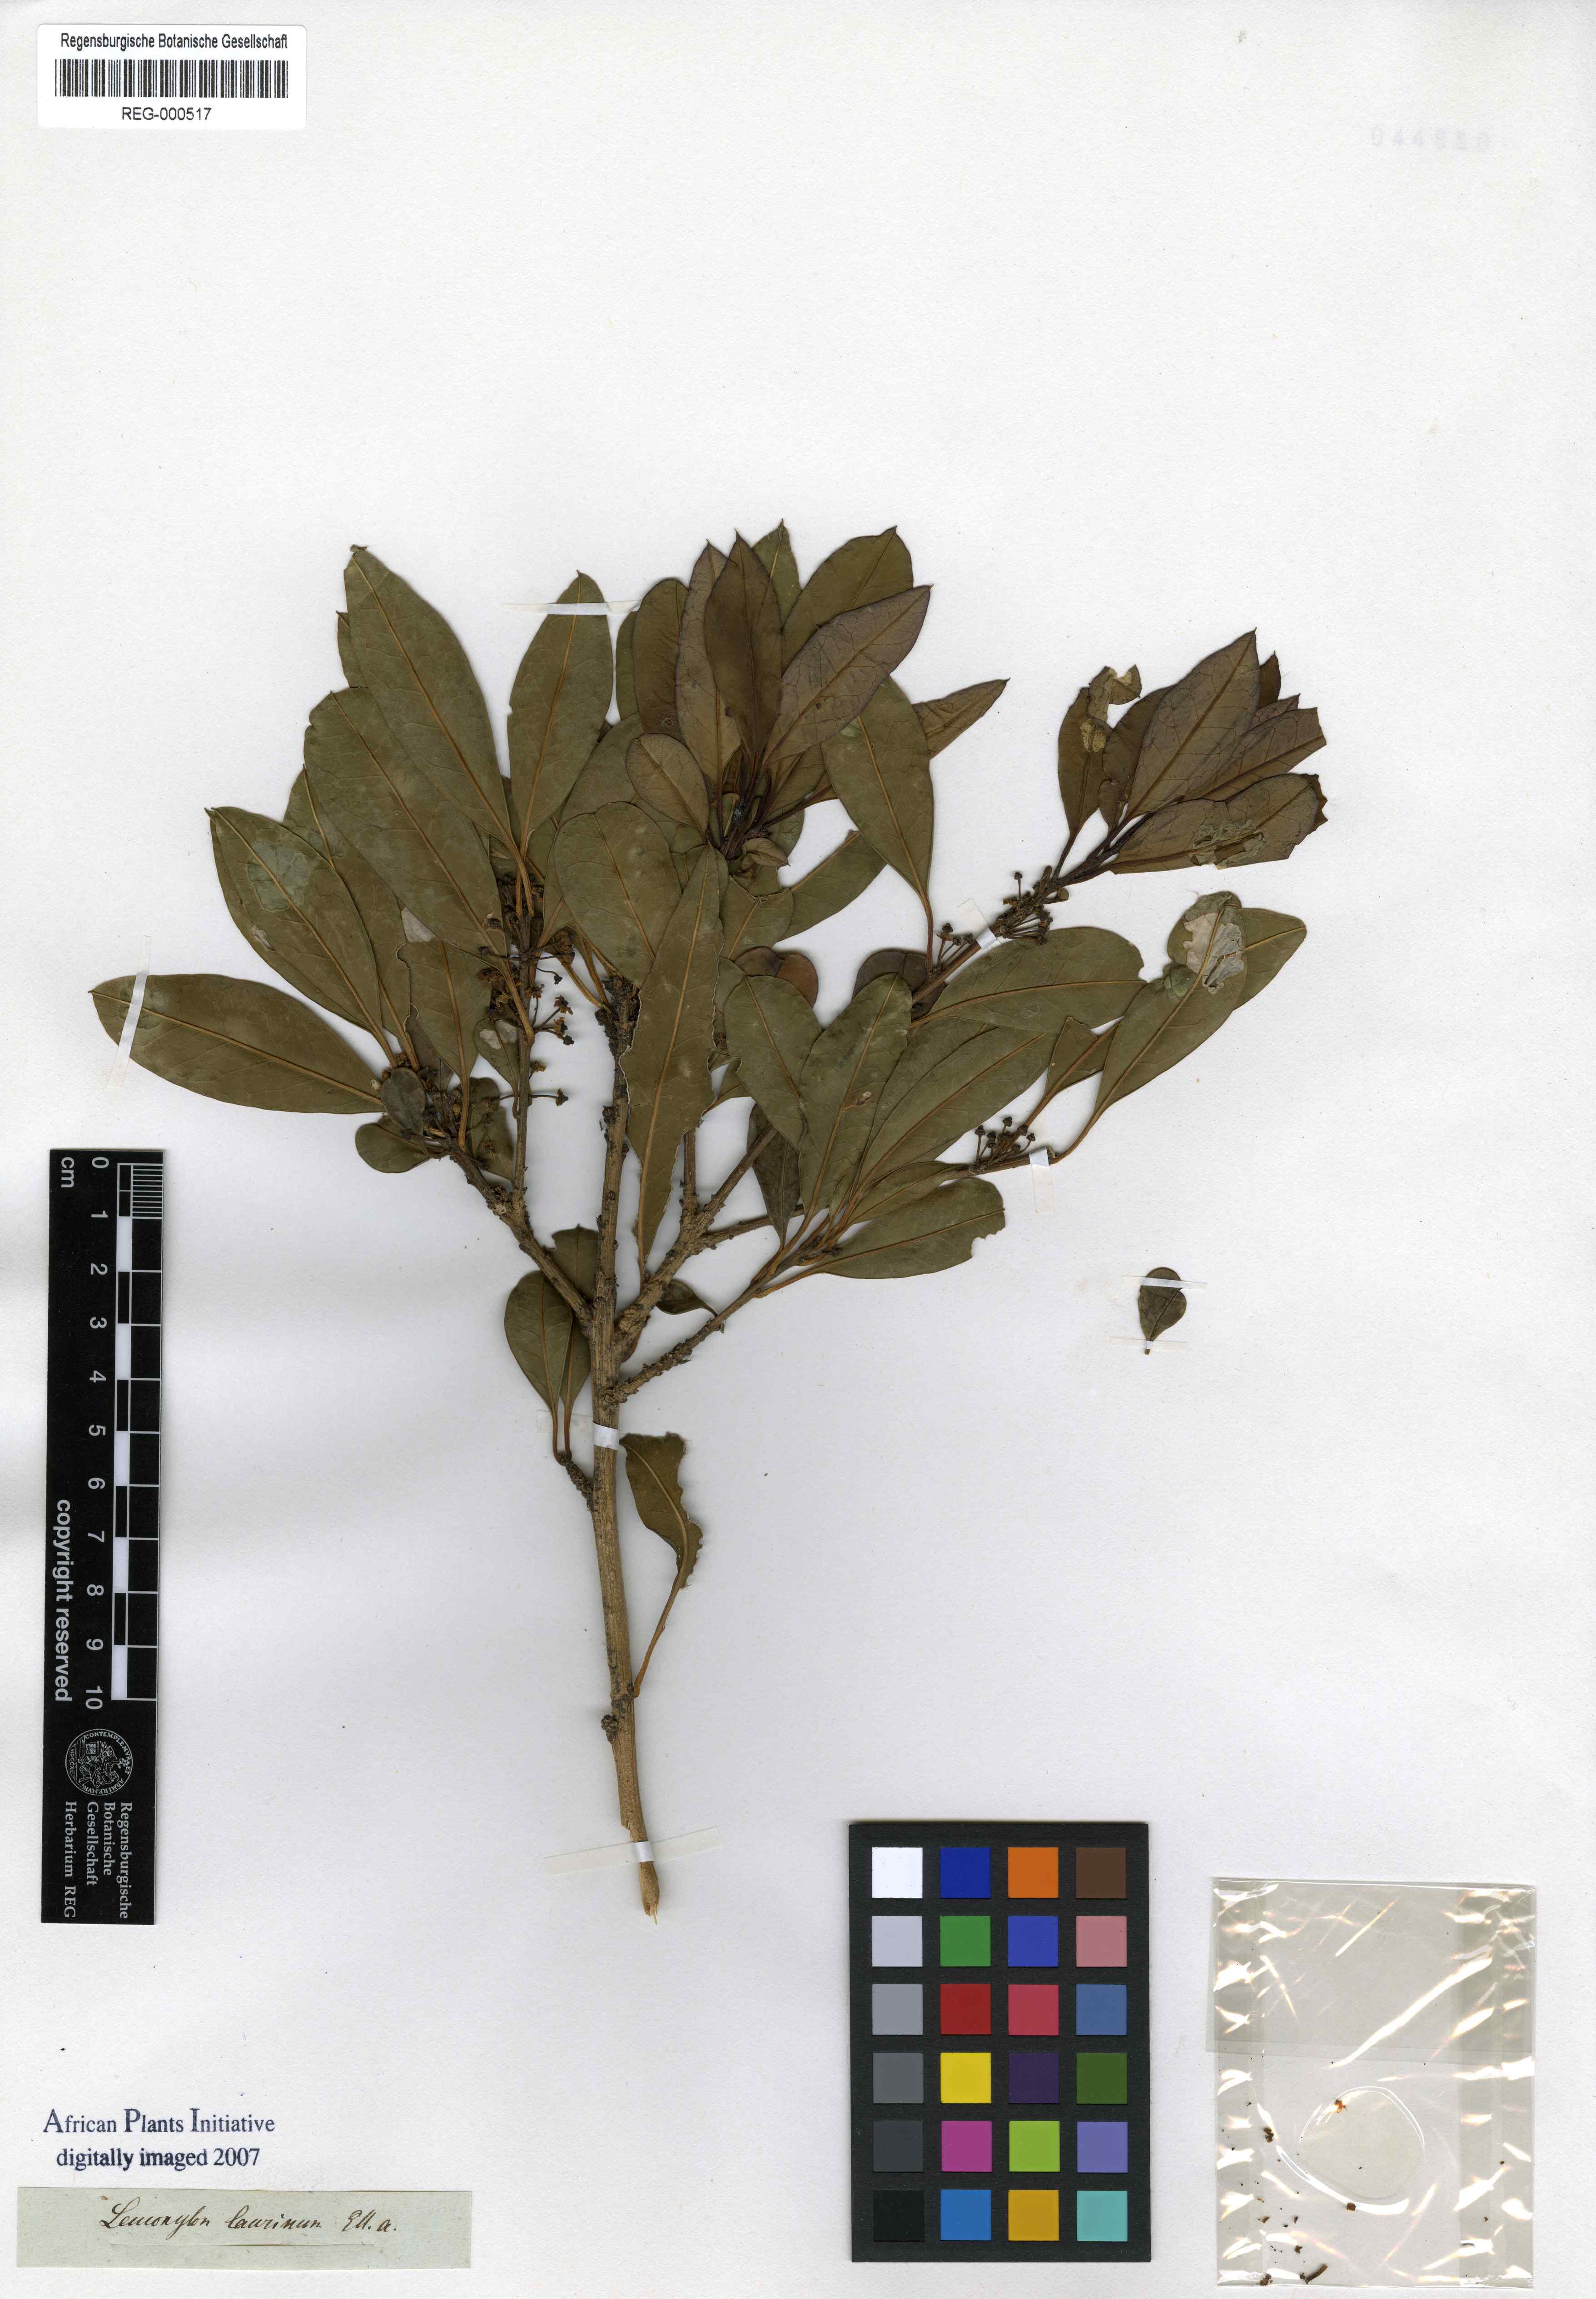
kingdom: Plantae
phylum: Tracheophyta
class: Magnoliopsida
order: Ericales
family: Ebenaceae
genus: Diospyros
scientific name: Diospyros Leucoxylum laurinum
